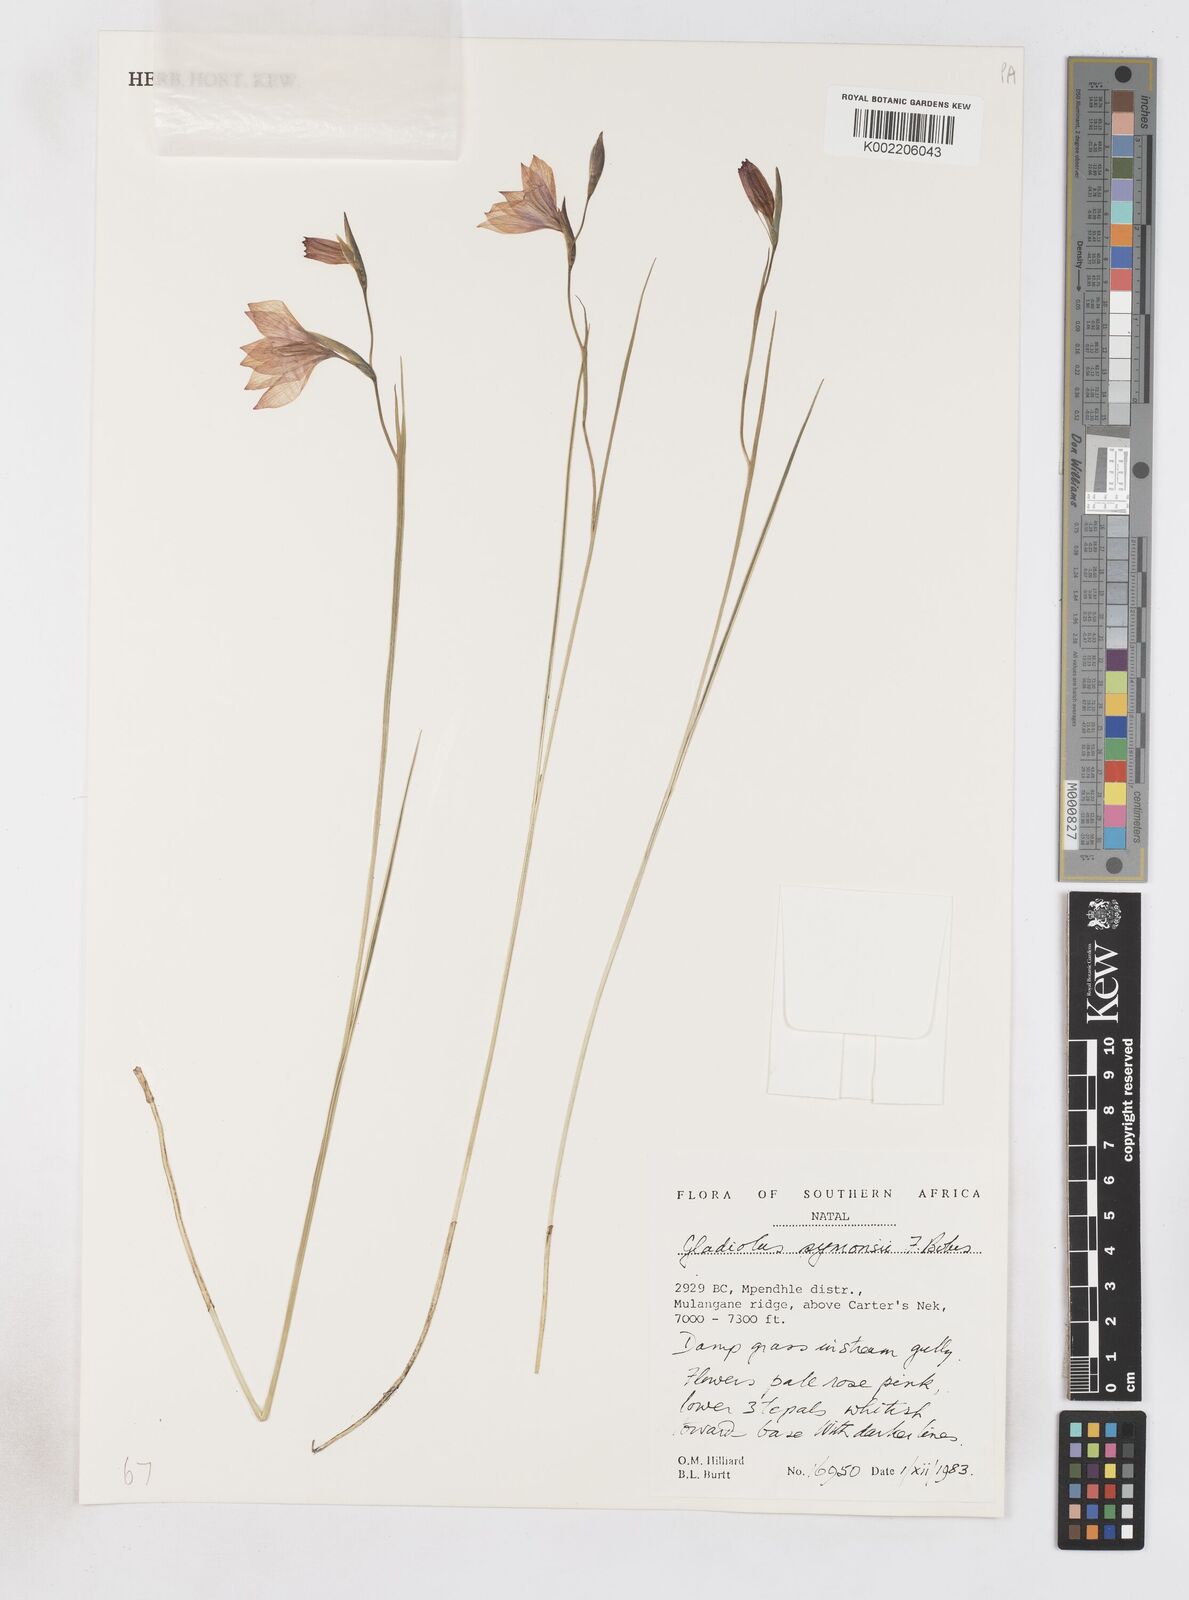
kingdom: Plantae
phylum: Tracheophyta
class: Liliopsida
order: Asparagales
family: Iridaceae
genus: Gladiolus
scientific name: Gladiolus symonsii
